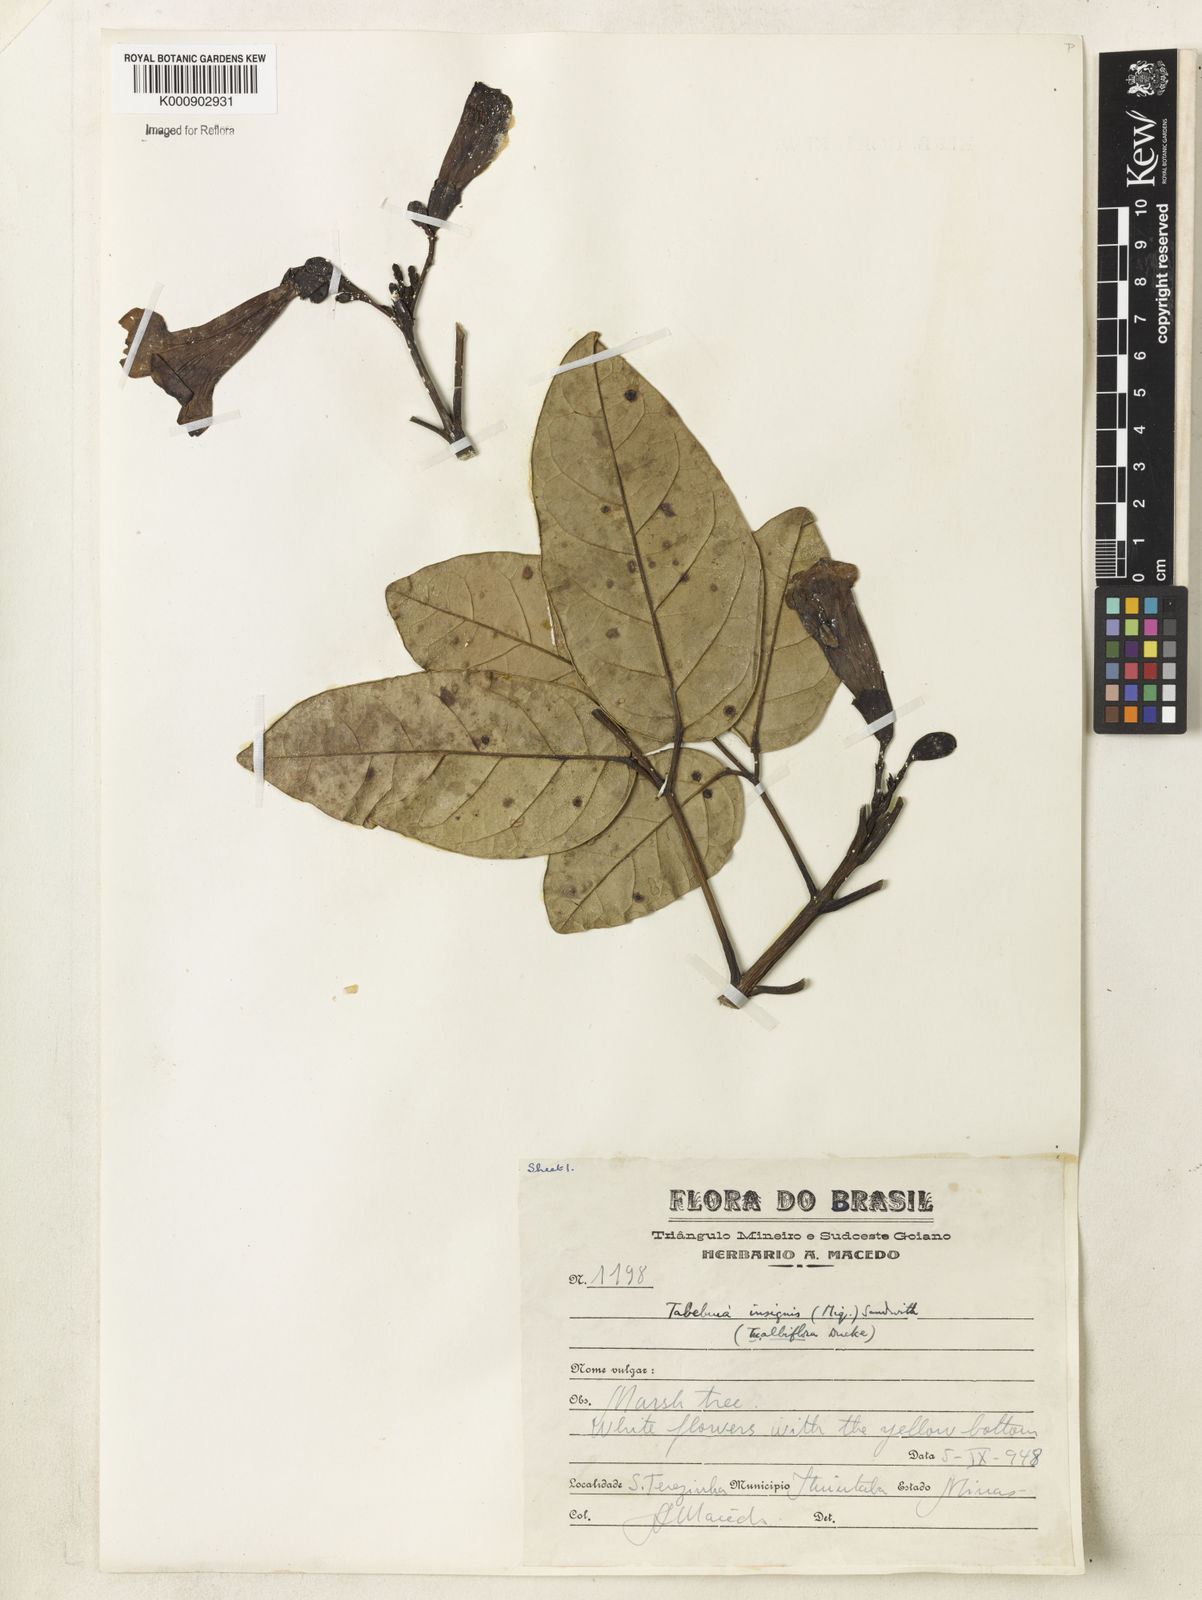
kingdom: Plantae
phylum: Tracheophyta
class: Magnoliopsida
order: Lamiales
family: Bignoniaceae
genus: Tabebuia
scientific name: Tabebuia insignis
